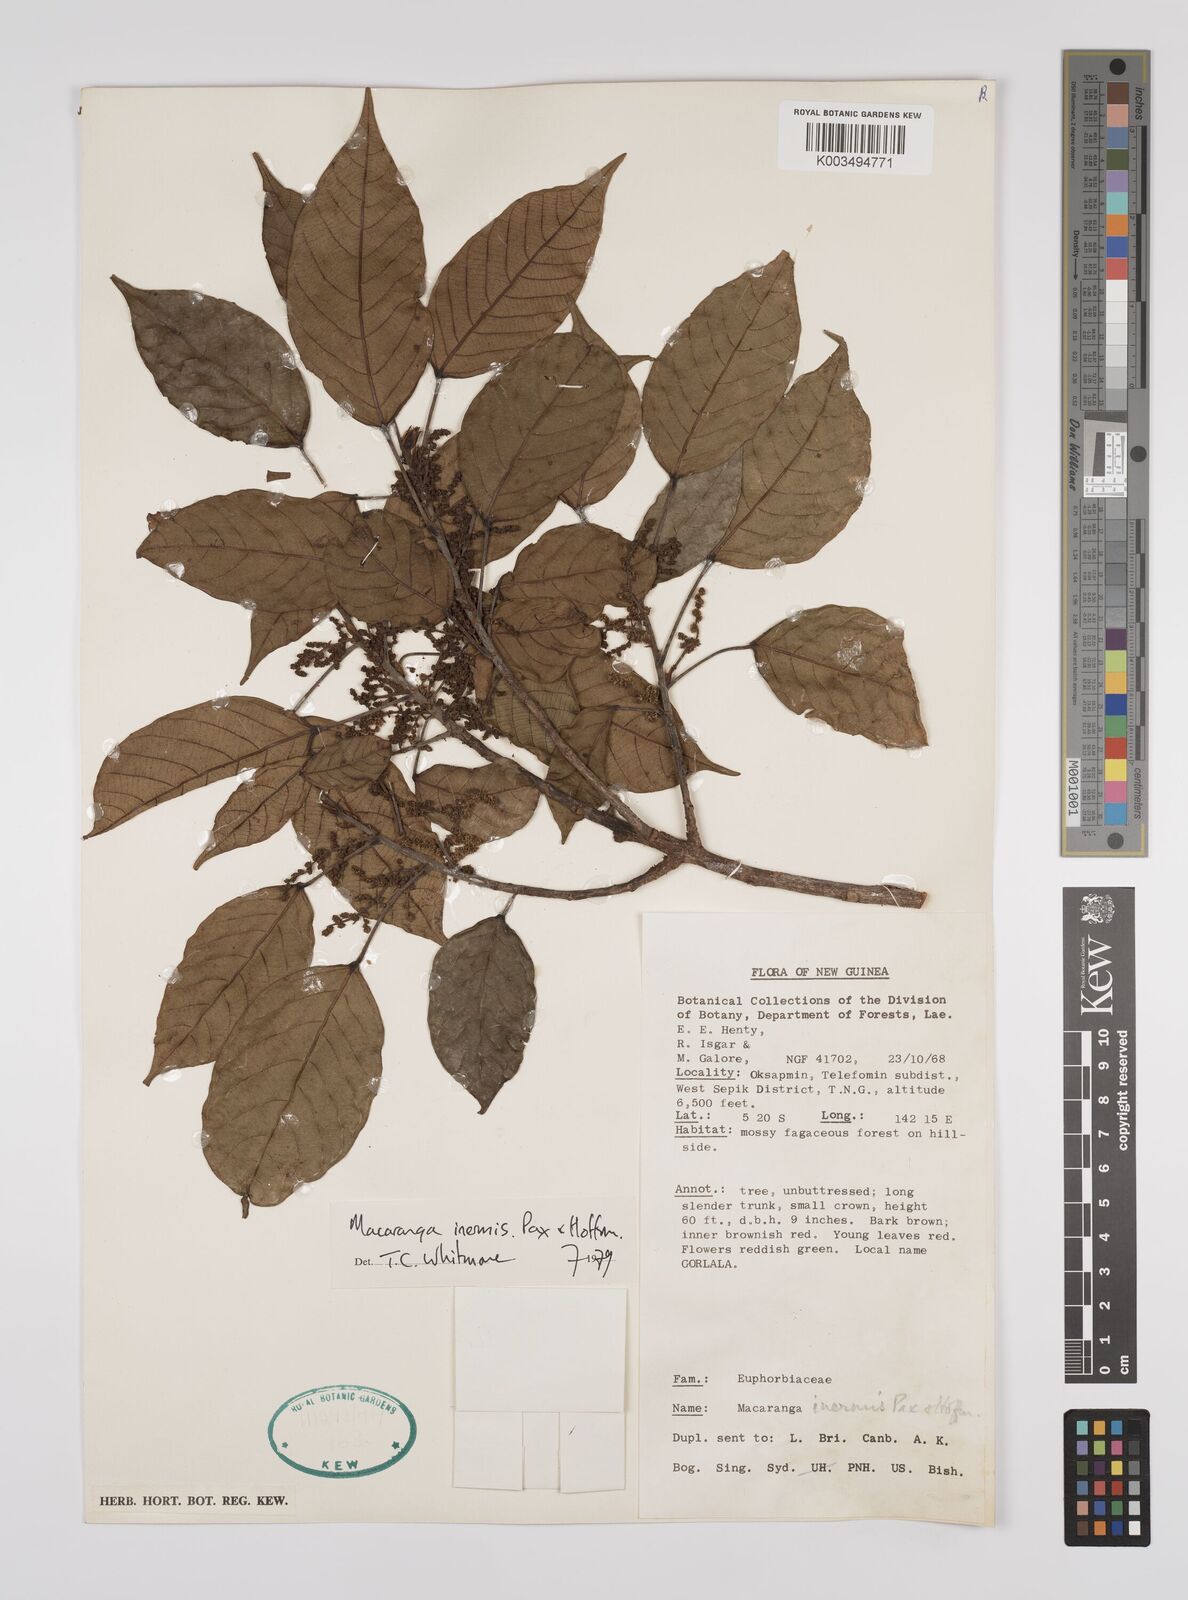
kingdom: Plantae
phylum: Tracheophyta
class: Magnoliopsida
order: Malpighiales
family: Euphorbiaceae
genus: Macaranga
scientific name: Macaranga inermis
